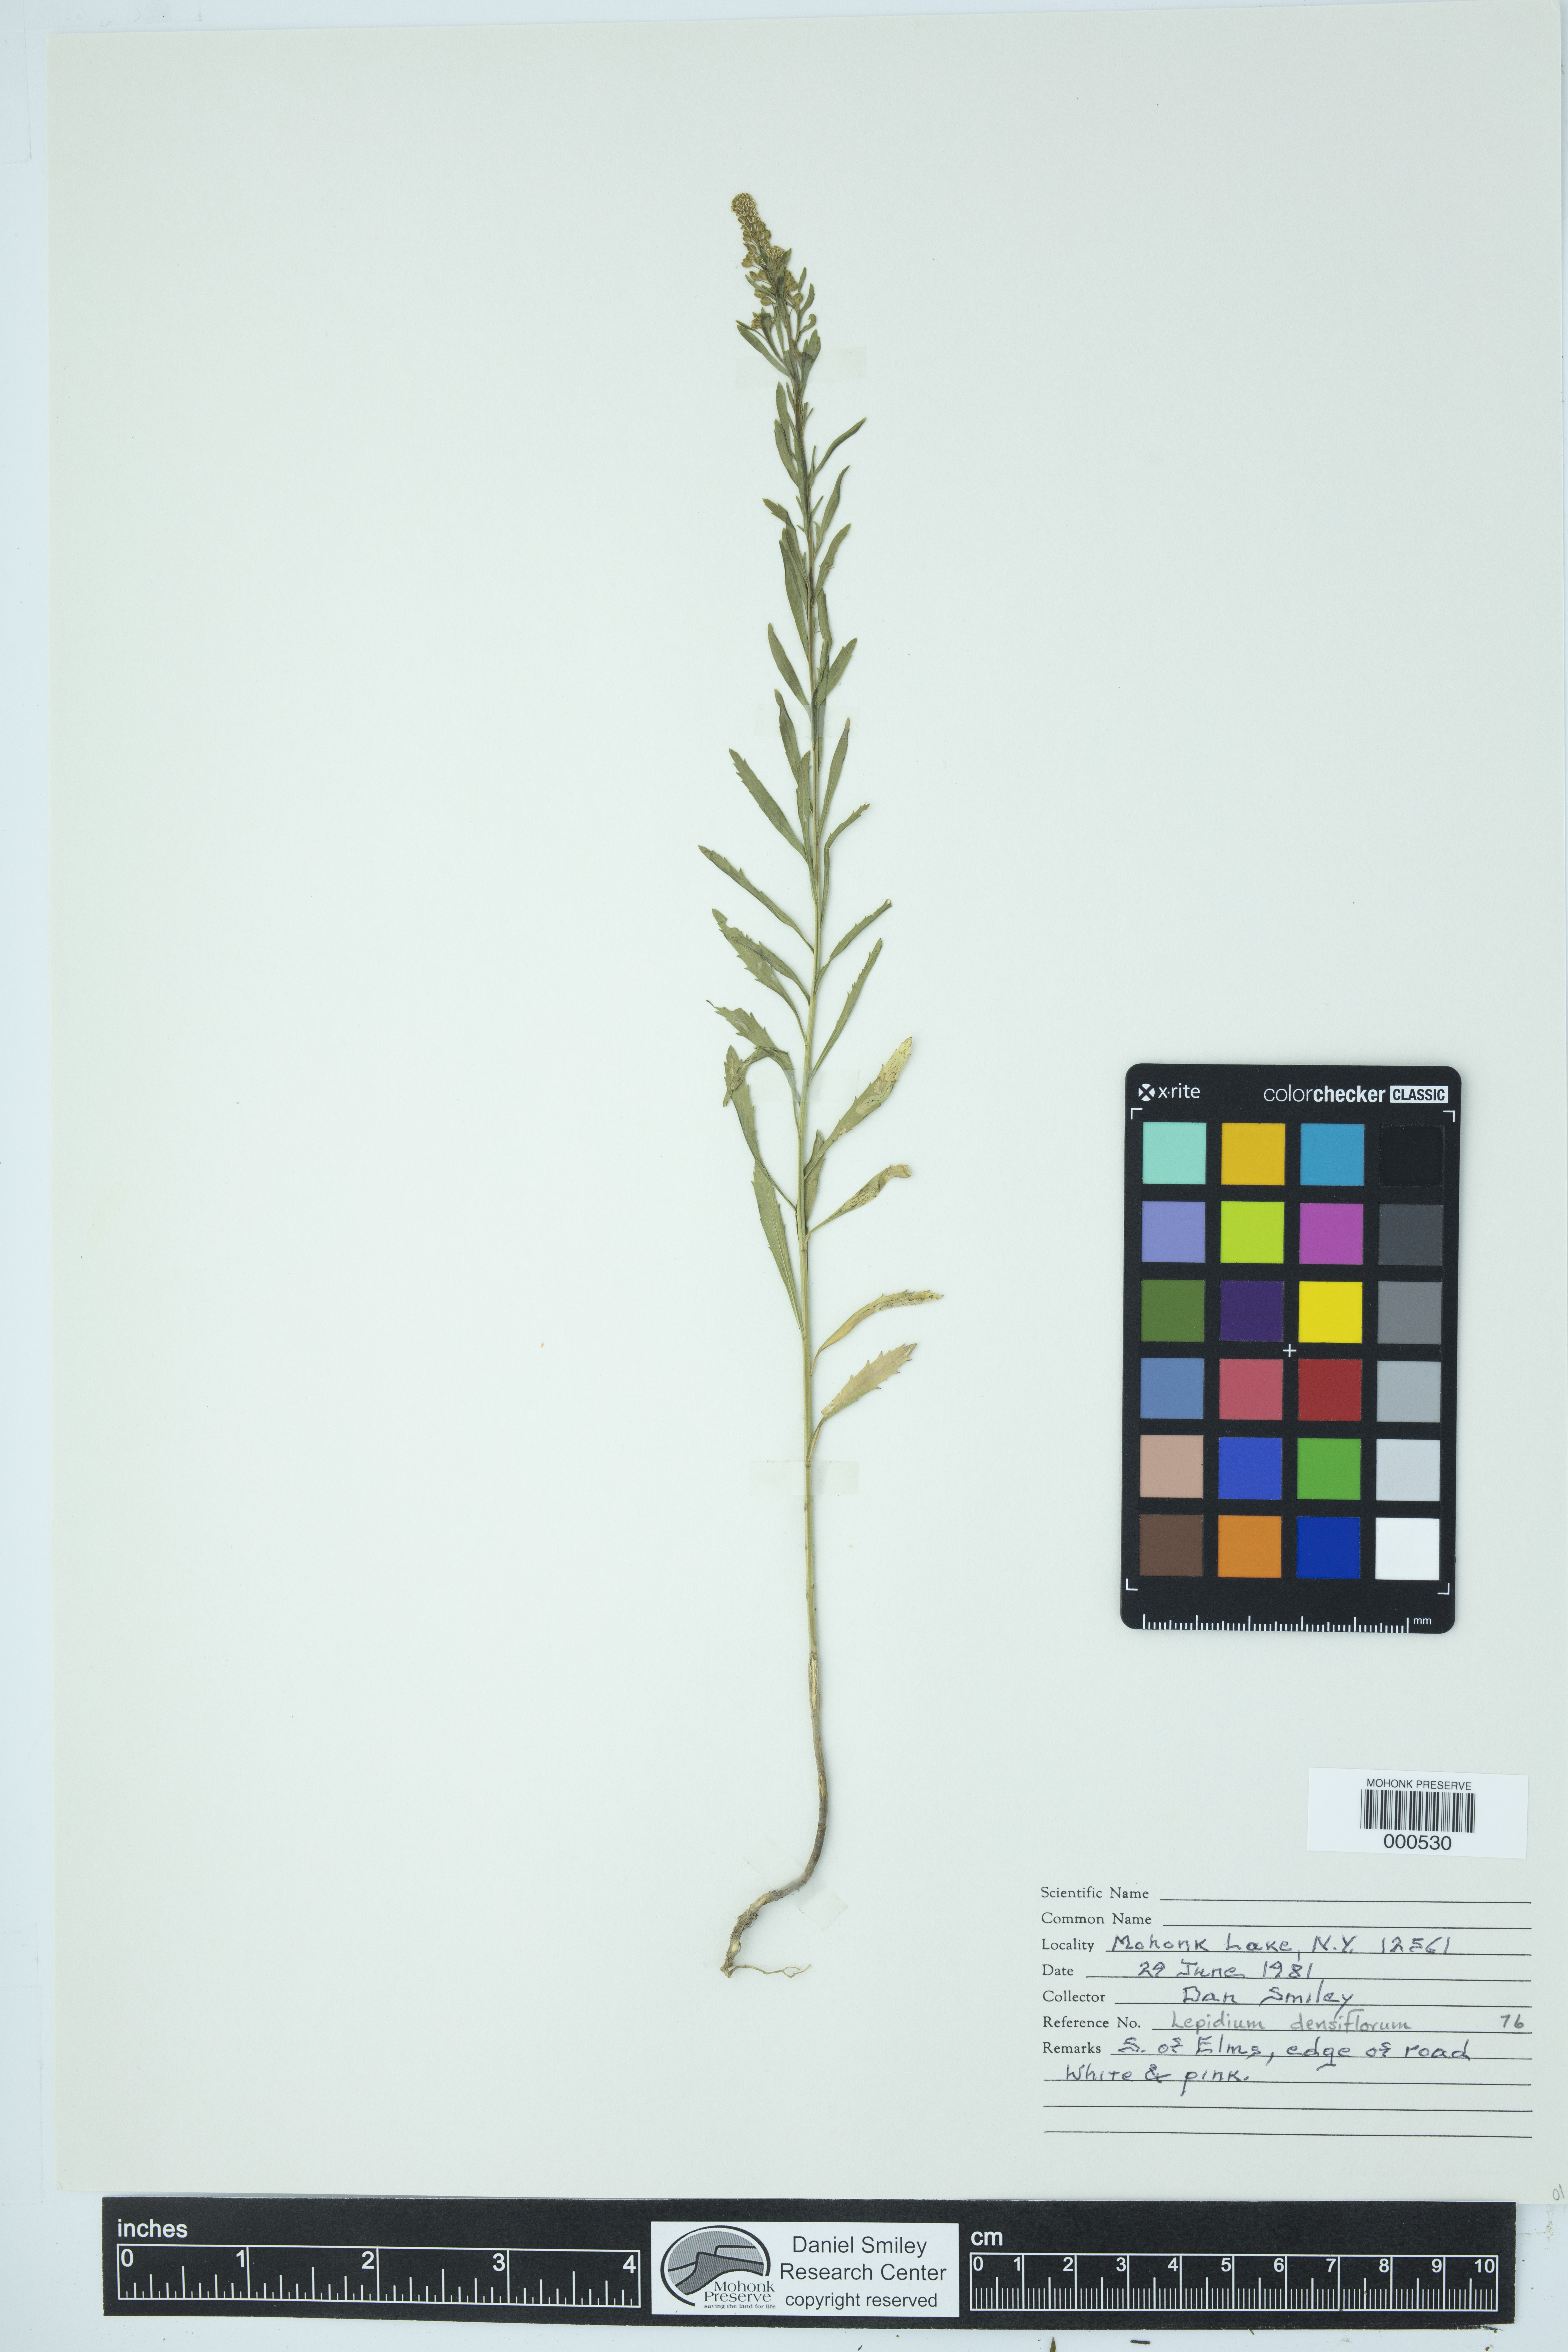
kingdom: Plantae
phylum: Tracheophyta
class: Magnoliopsida
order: Brassicales
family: Brassicaceae
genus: Lepidium
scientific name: Lepidium densiflorum
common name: Miner's pepperwort
